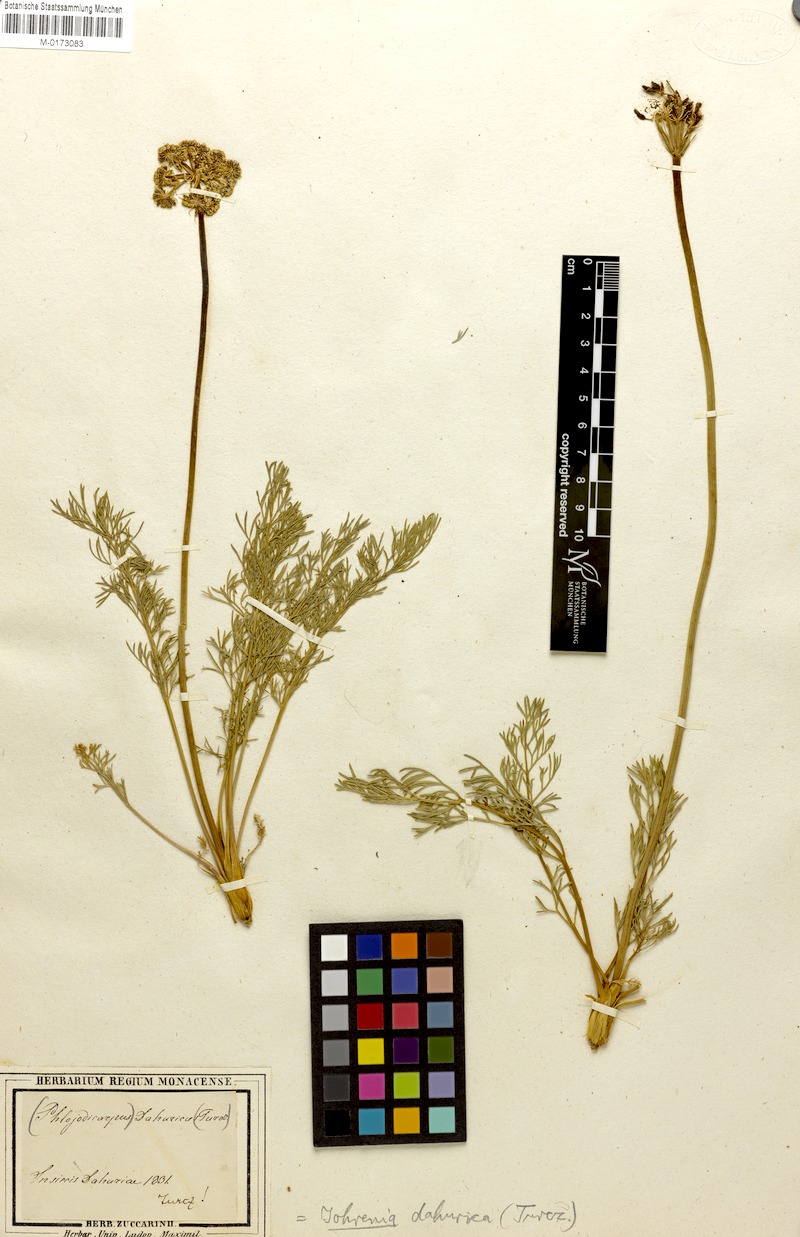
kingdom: Plantae
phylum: Tracheophyta
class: Magnoliopsida
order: Apiales
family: Apiaceae
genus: Phlojodicarpus
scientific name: Phlojodicarpus sibiricus
